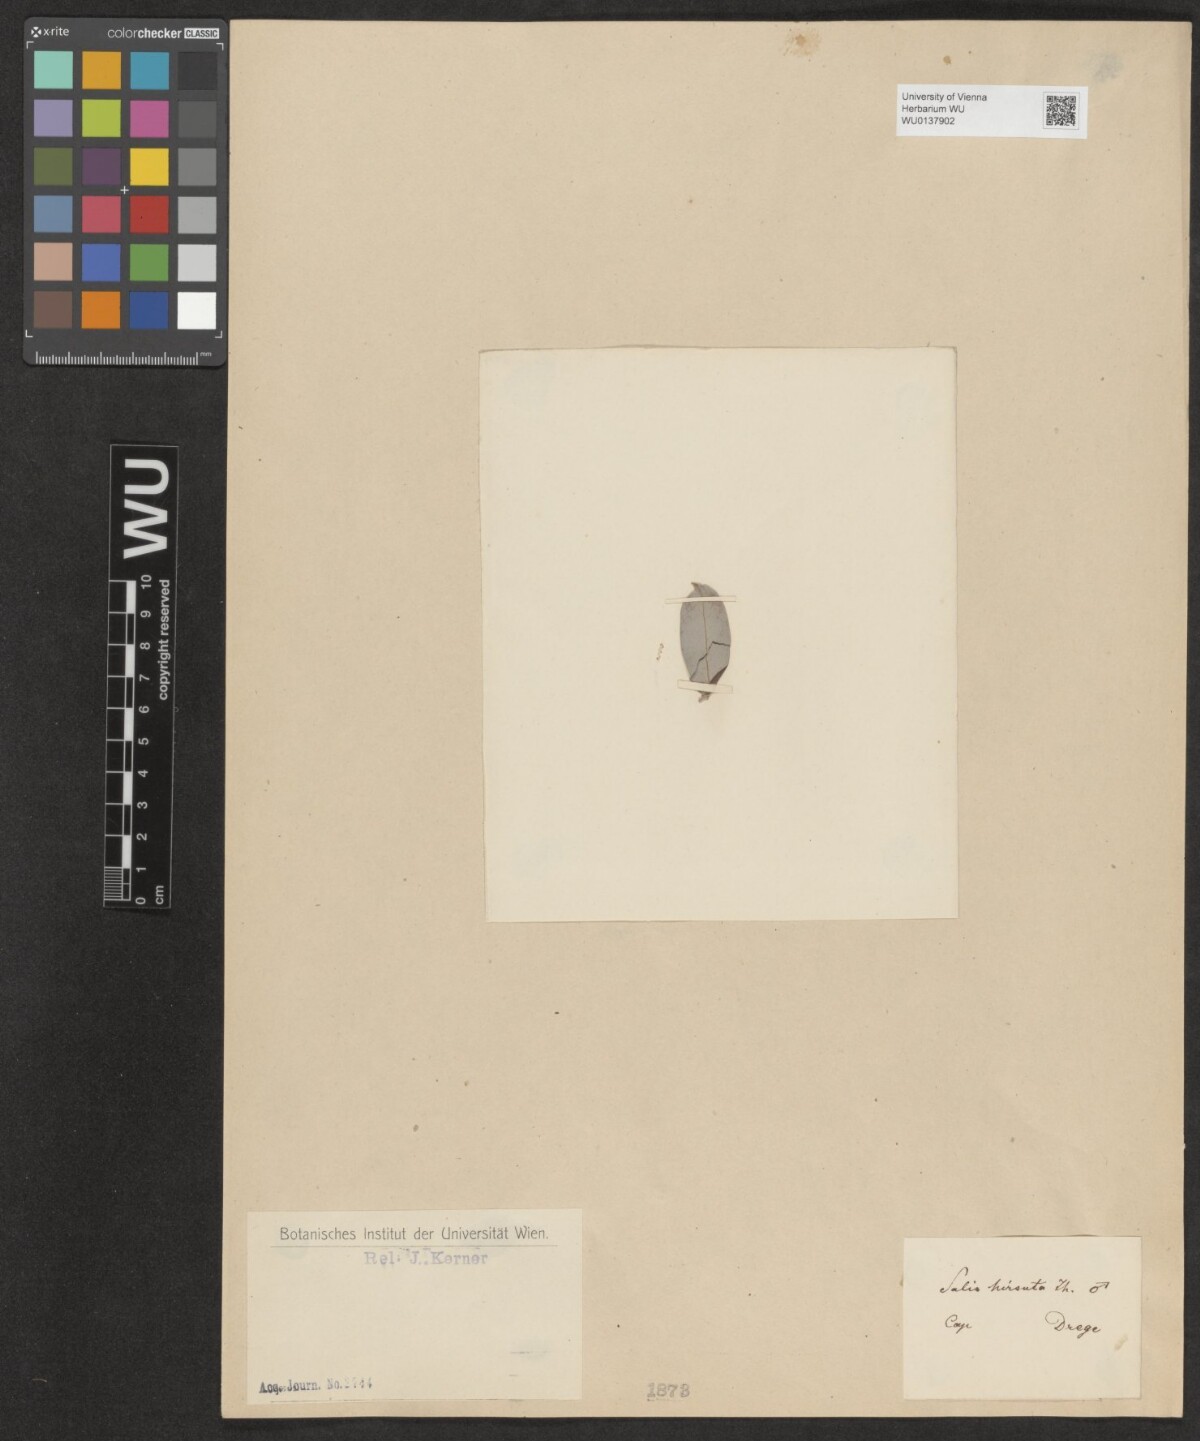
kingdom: Plantae
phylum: Tracheophyta
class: Magnoliopsida
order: Malpighiales
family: Salicaceae
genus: Salix
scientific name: Salix mucronata
